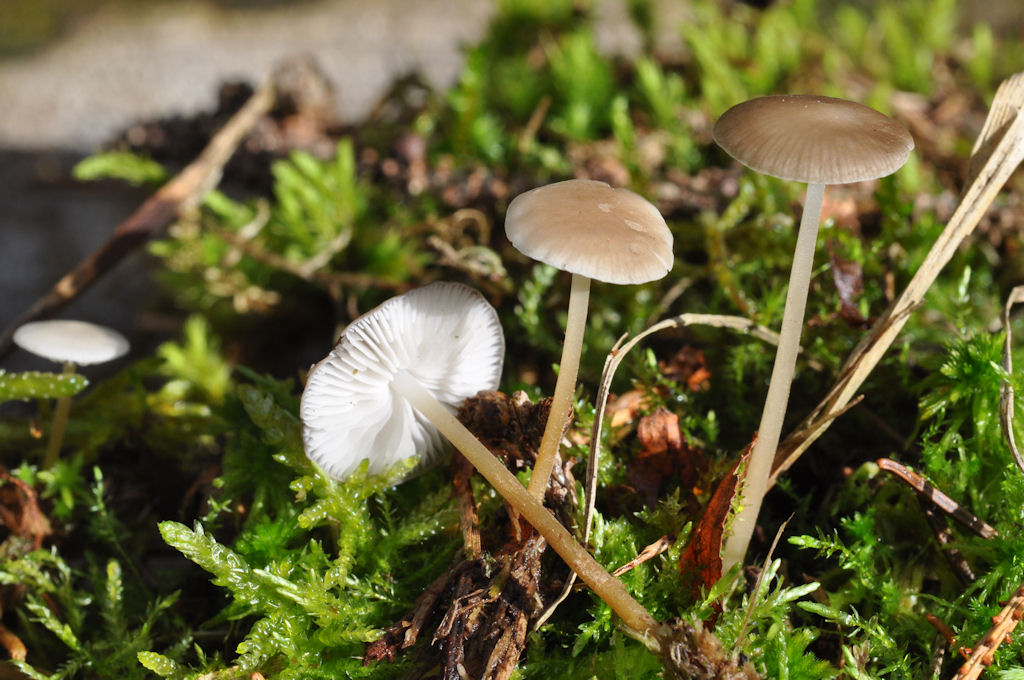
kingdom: Fungi
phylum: Basidiomycota
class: Agaricomycetes
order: Agaricales
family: Physalacriaceae
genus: Strobilurus
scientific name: Strobilurus esculentus
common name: gran-koglehat
